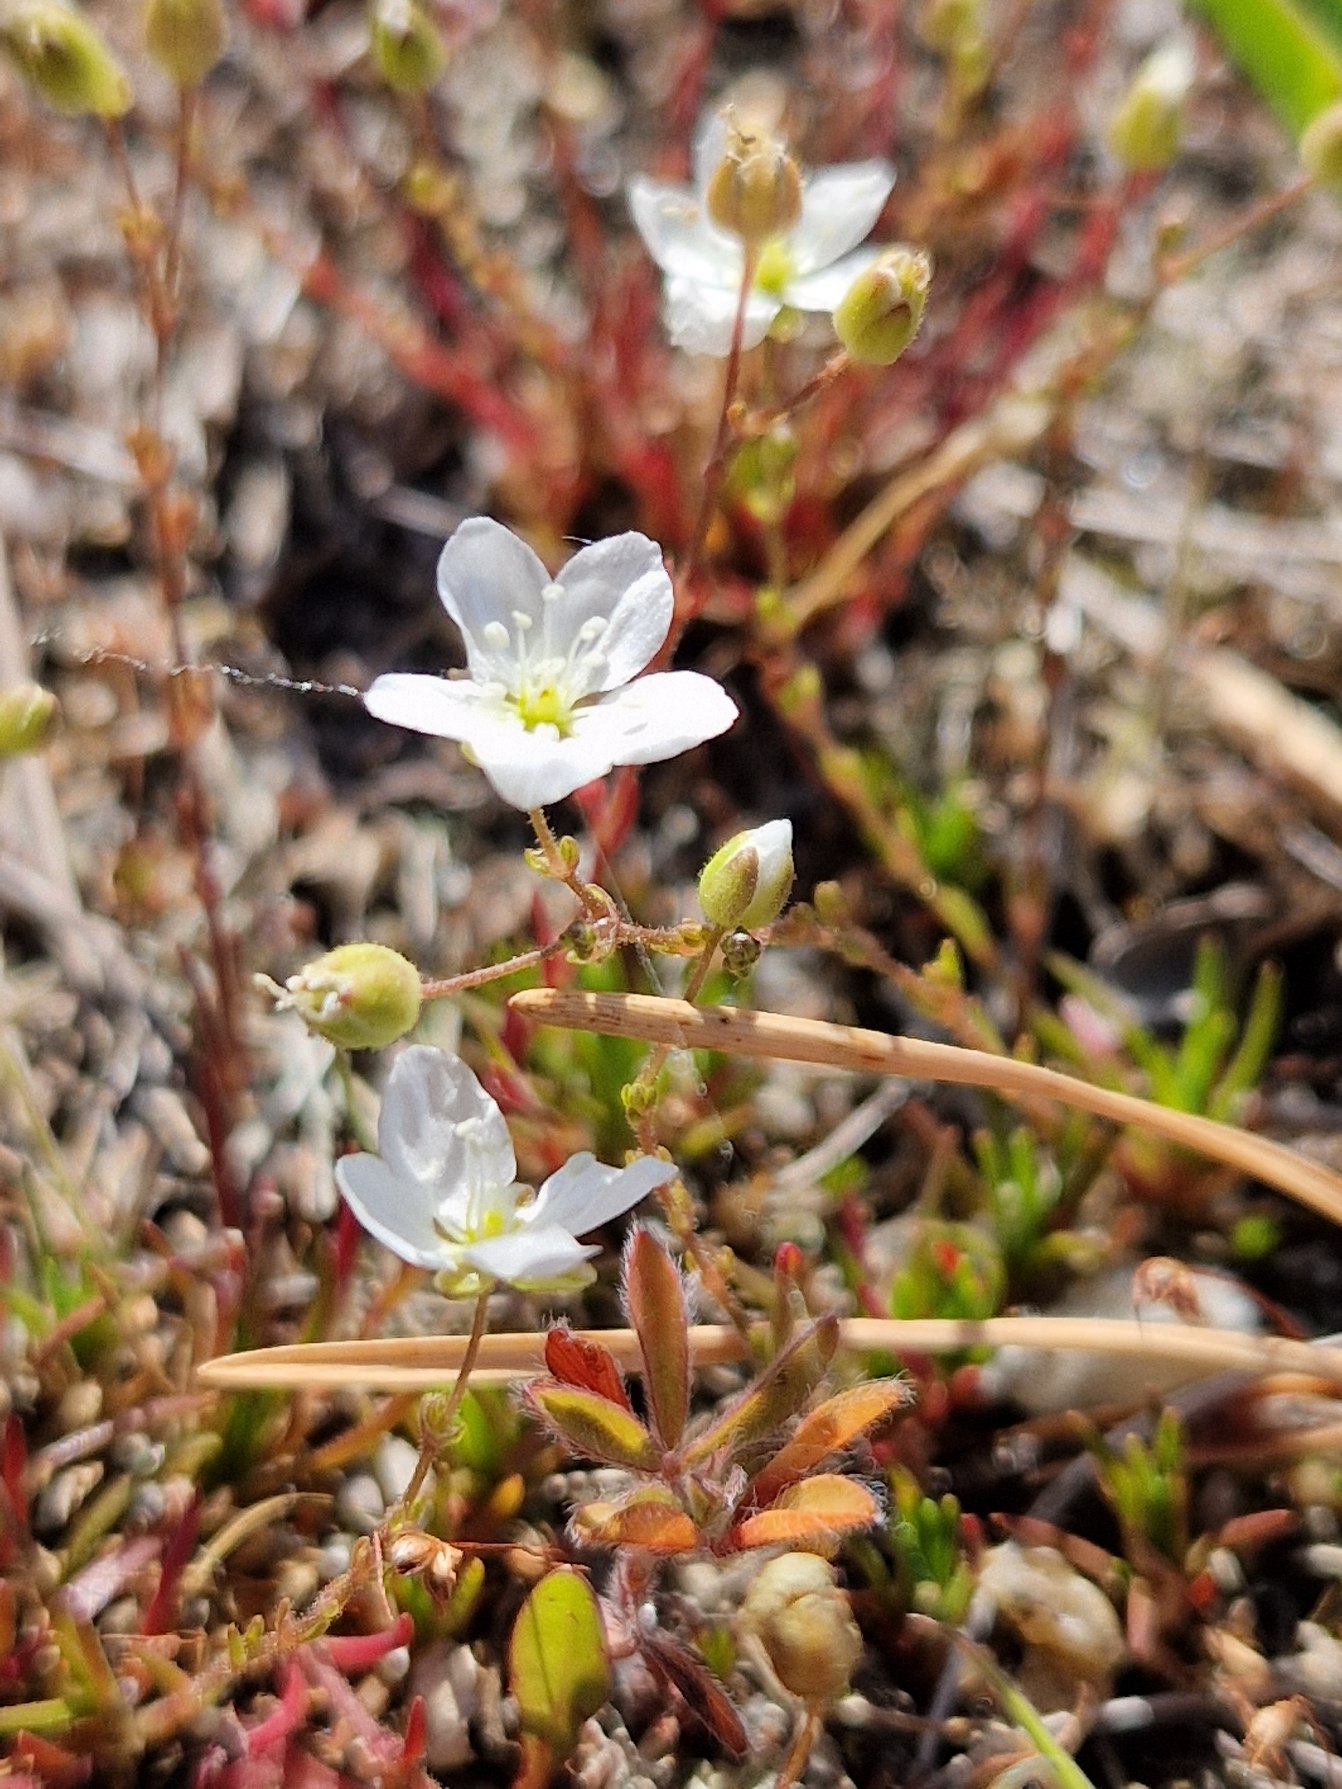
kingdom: Plantae
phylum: Tracheophyta
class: Magnoliopsida
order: Caryophyllales
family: Caryophyllaceae
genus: Sagina
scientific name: Sagina nodosa
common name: Knude-firling
